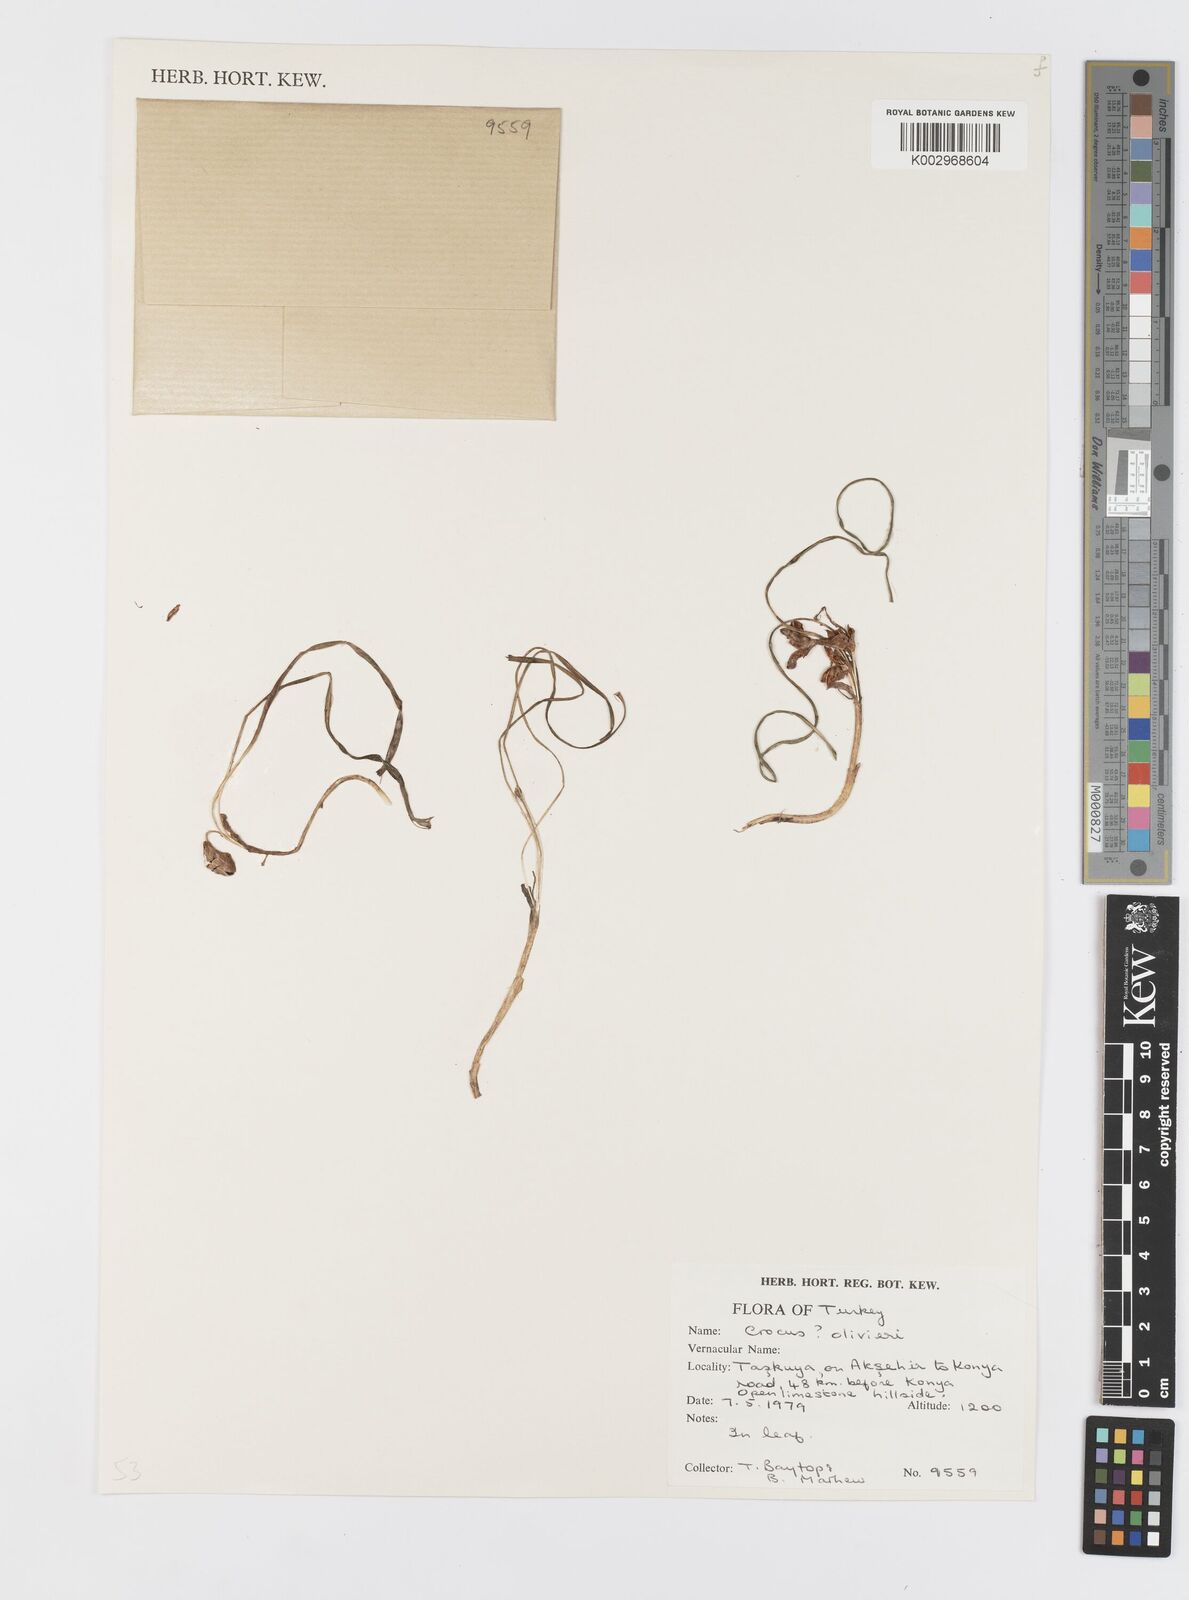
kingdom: Plantae
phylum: Tracheophyta
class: Liliopsida
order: Asparagales
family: Iridaceae
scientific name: Iridaceae
